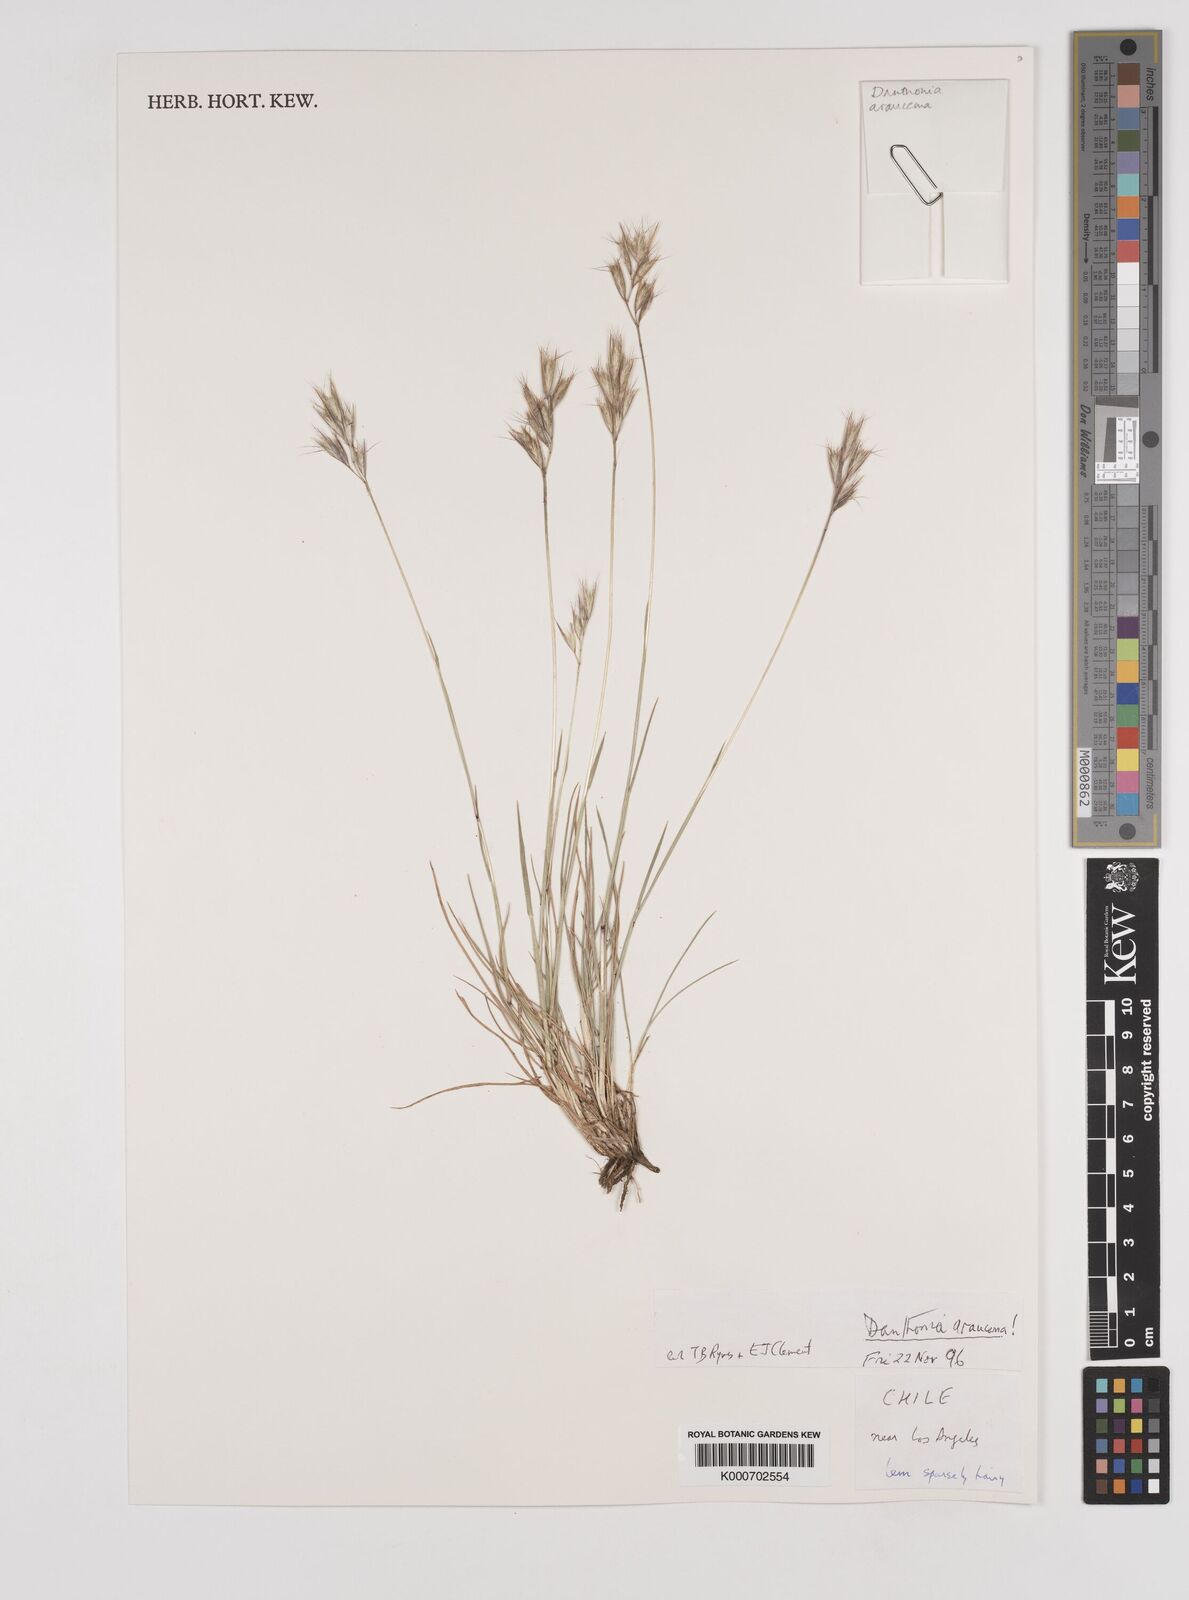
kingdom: Plantae
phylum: Tracheophyta
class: Liliopsida
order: Poales
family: Poaceae
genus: Danthonia
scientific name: Danthonia araucana
